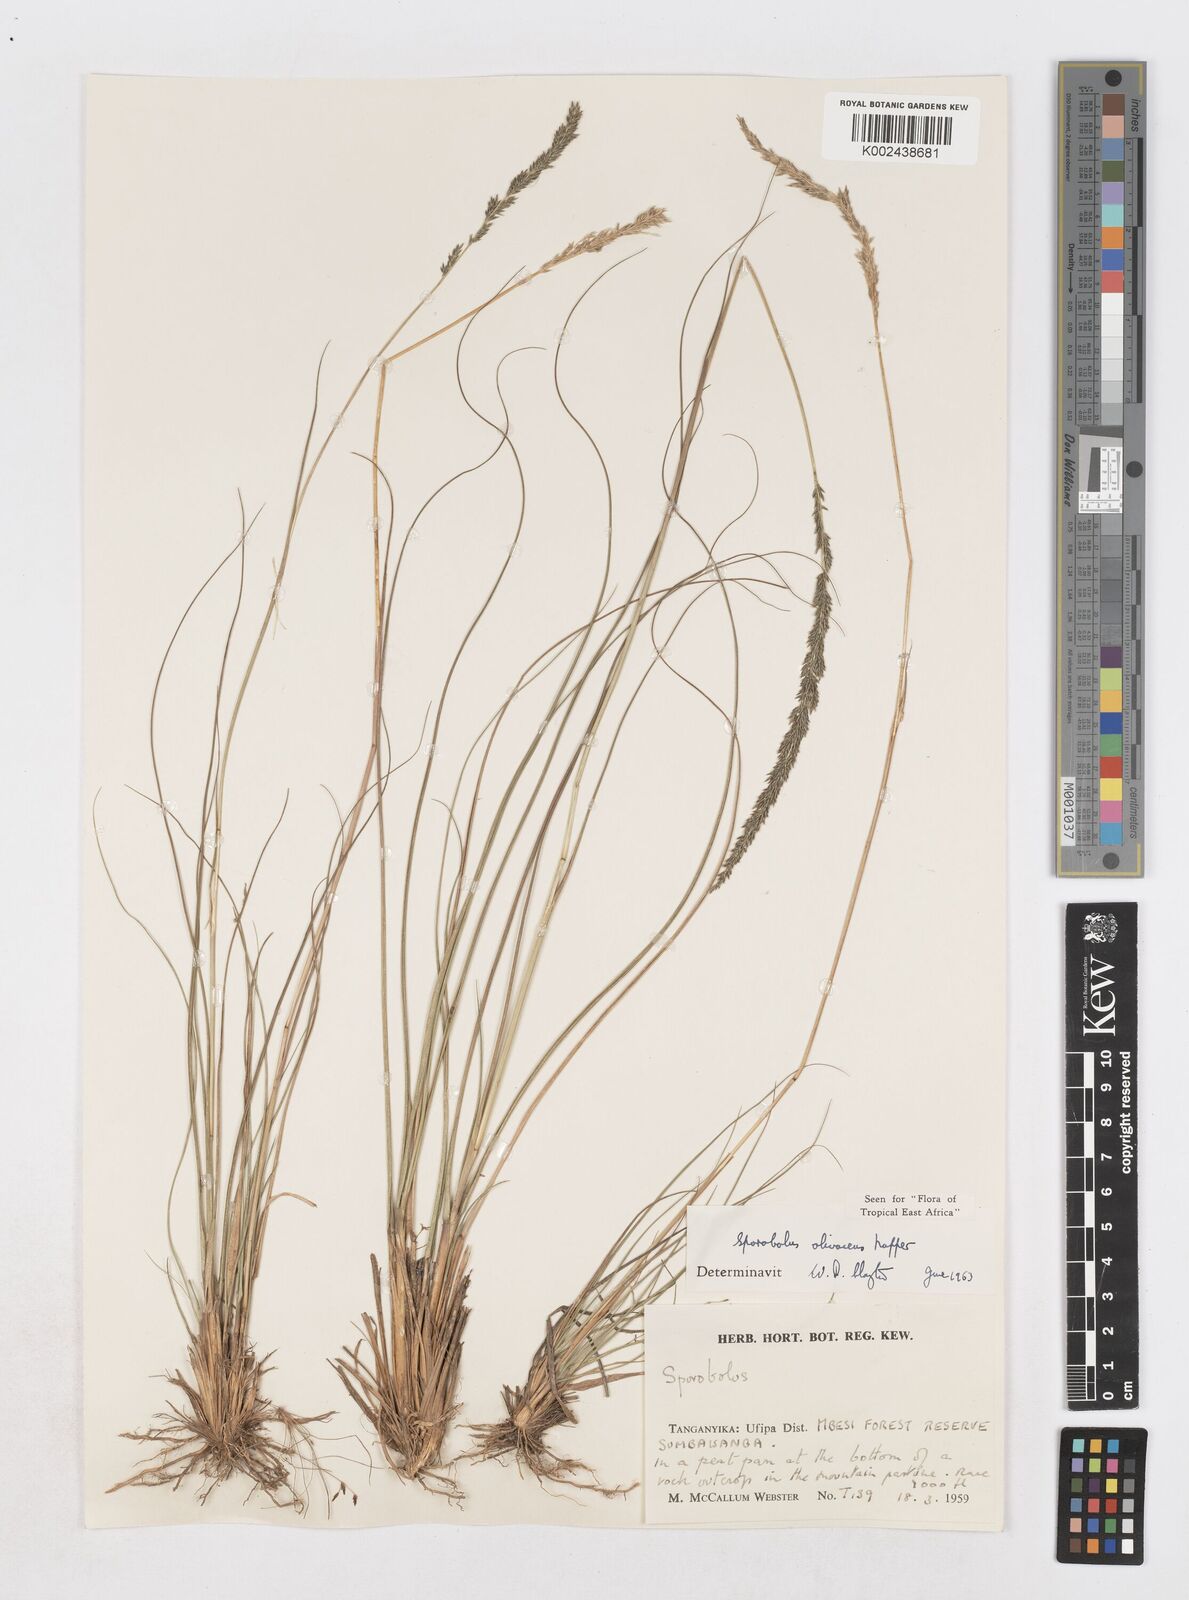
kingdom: Plantae
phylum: Tracheophyta
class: Liliopsida
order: Poales
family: Poaceae
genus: Sporobolus
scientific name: Sporobolus olivaceus
